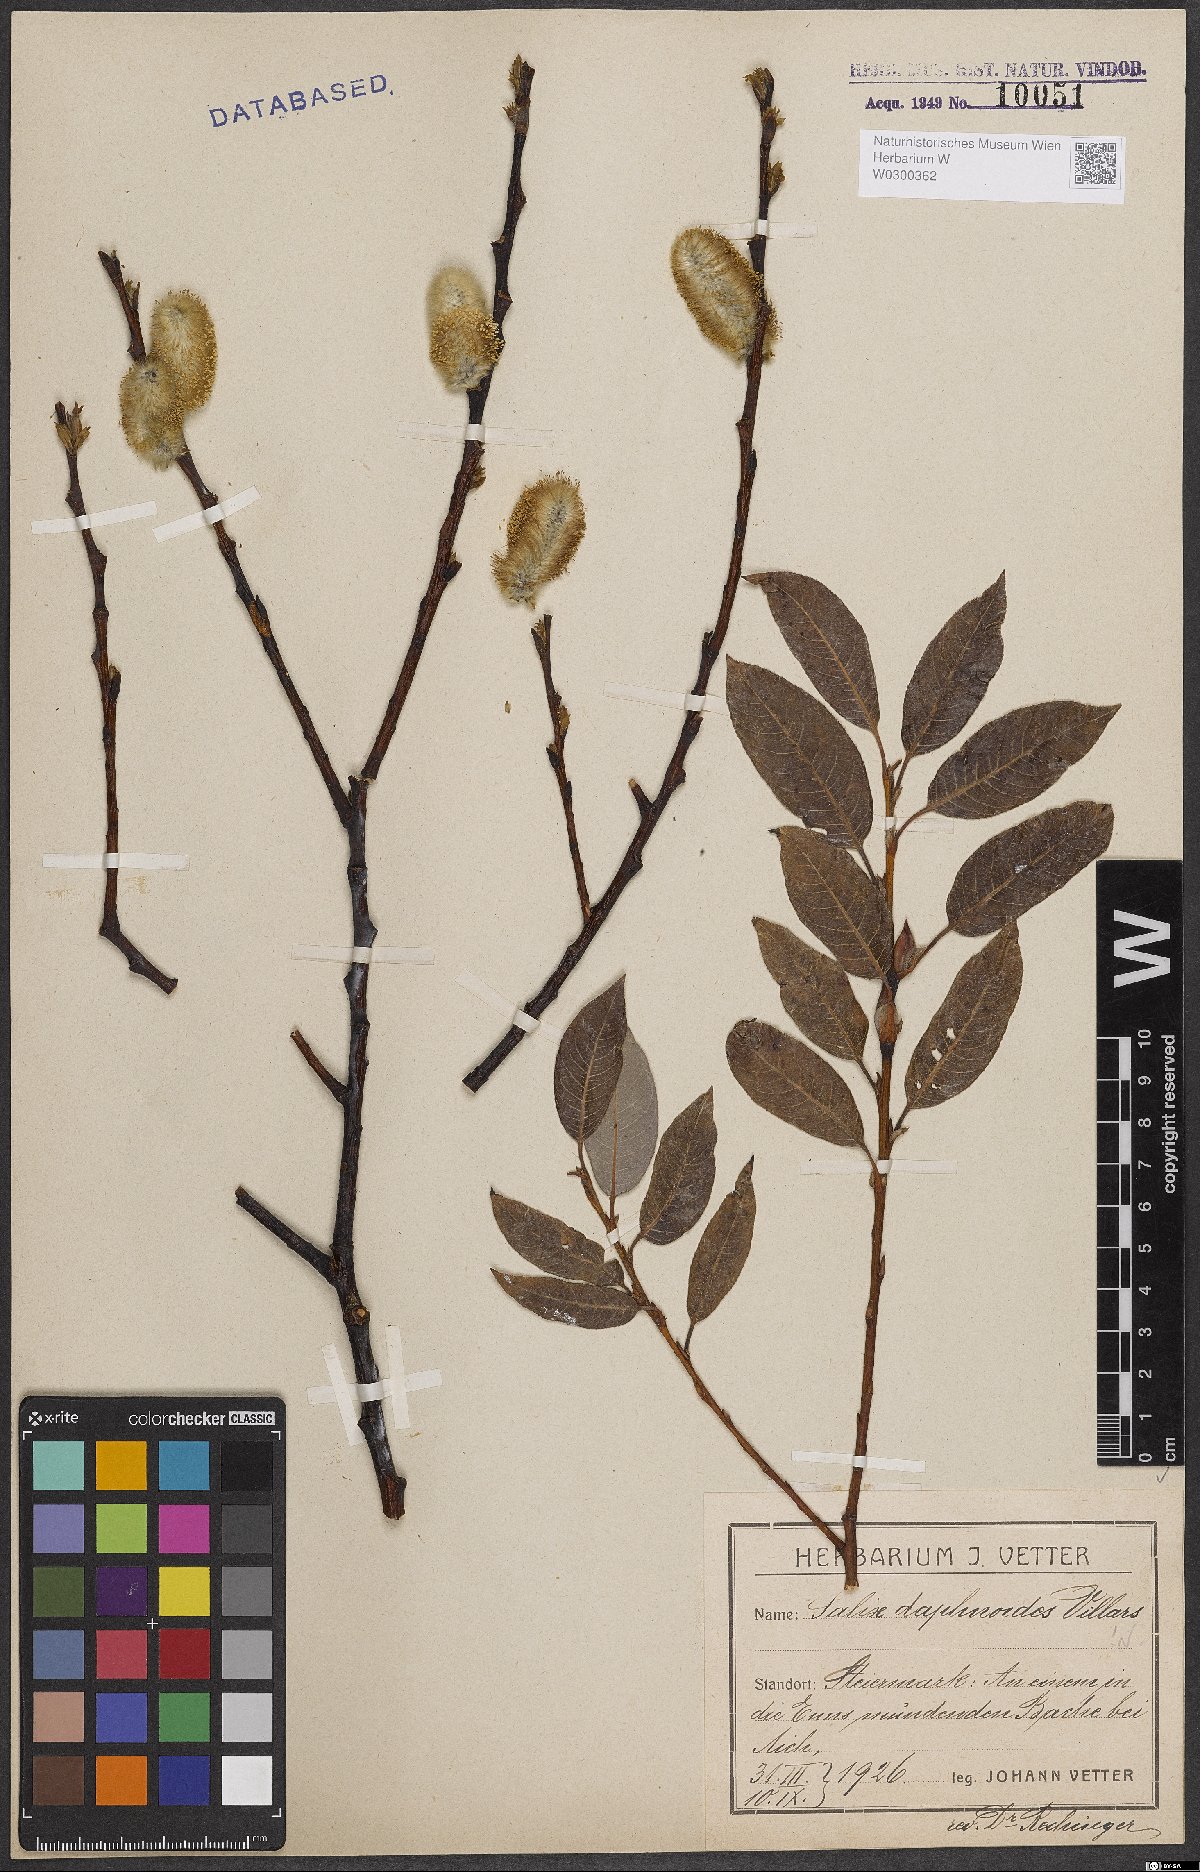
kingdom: Plantae
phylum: Tracheophyta
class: Magnoliopsida
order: Malpighiales
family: Salicaceae
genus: Salix
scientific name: Salix daphnoides
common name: European violet-willow
